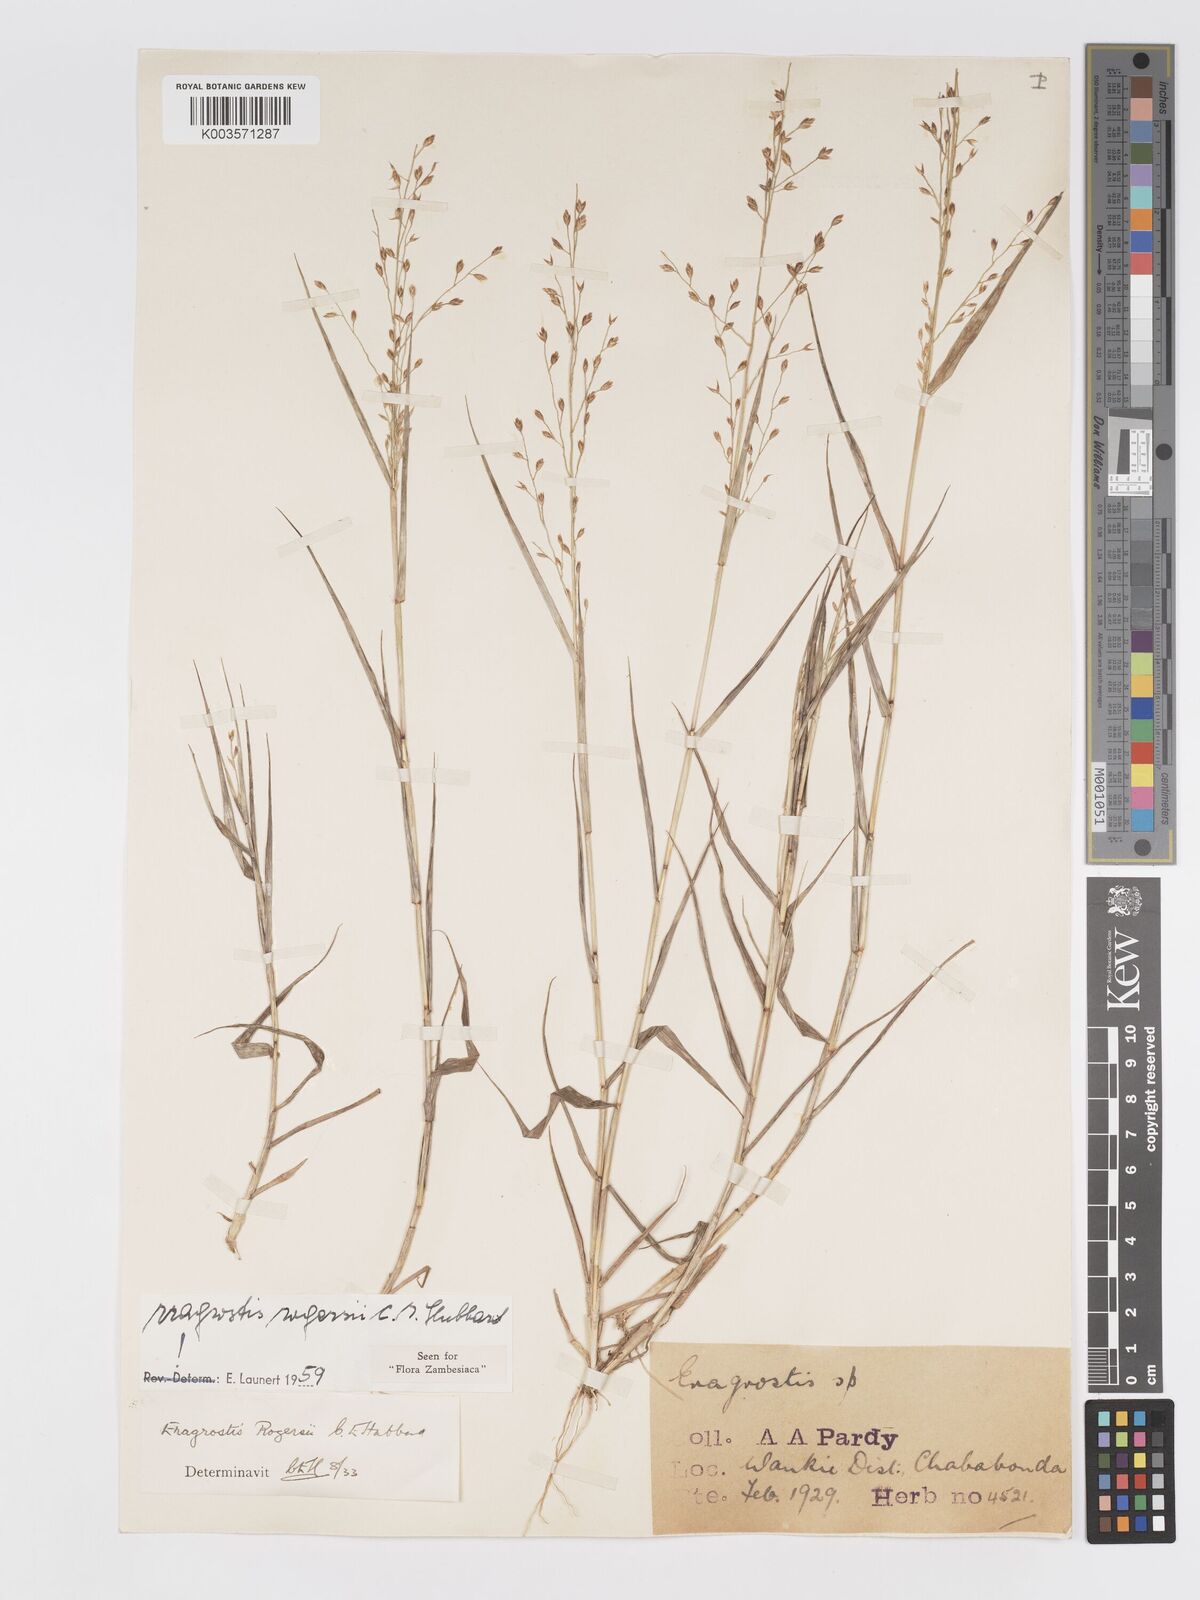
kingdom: Plantae
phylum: Tracheophyta
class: Liliopsida
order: Poales
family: Poaceae
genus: Eragrostis
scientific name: Eragrostis rogersii
